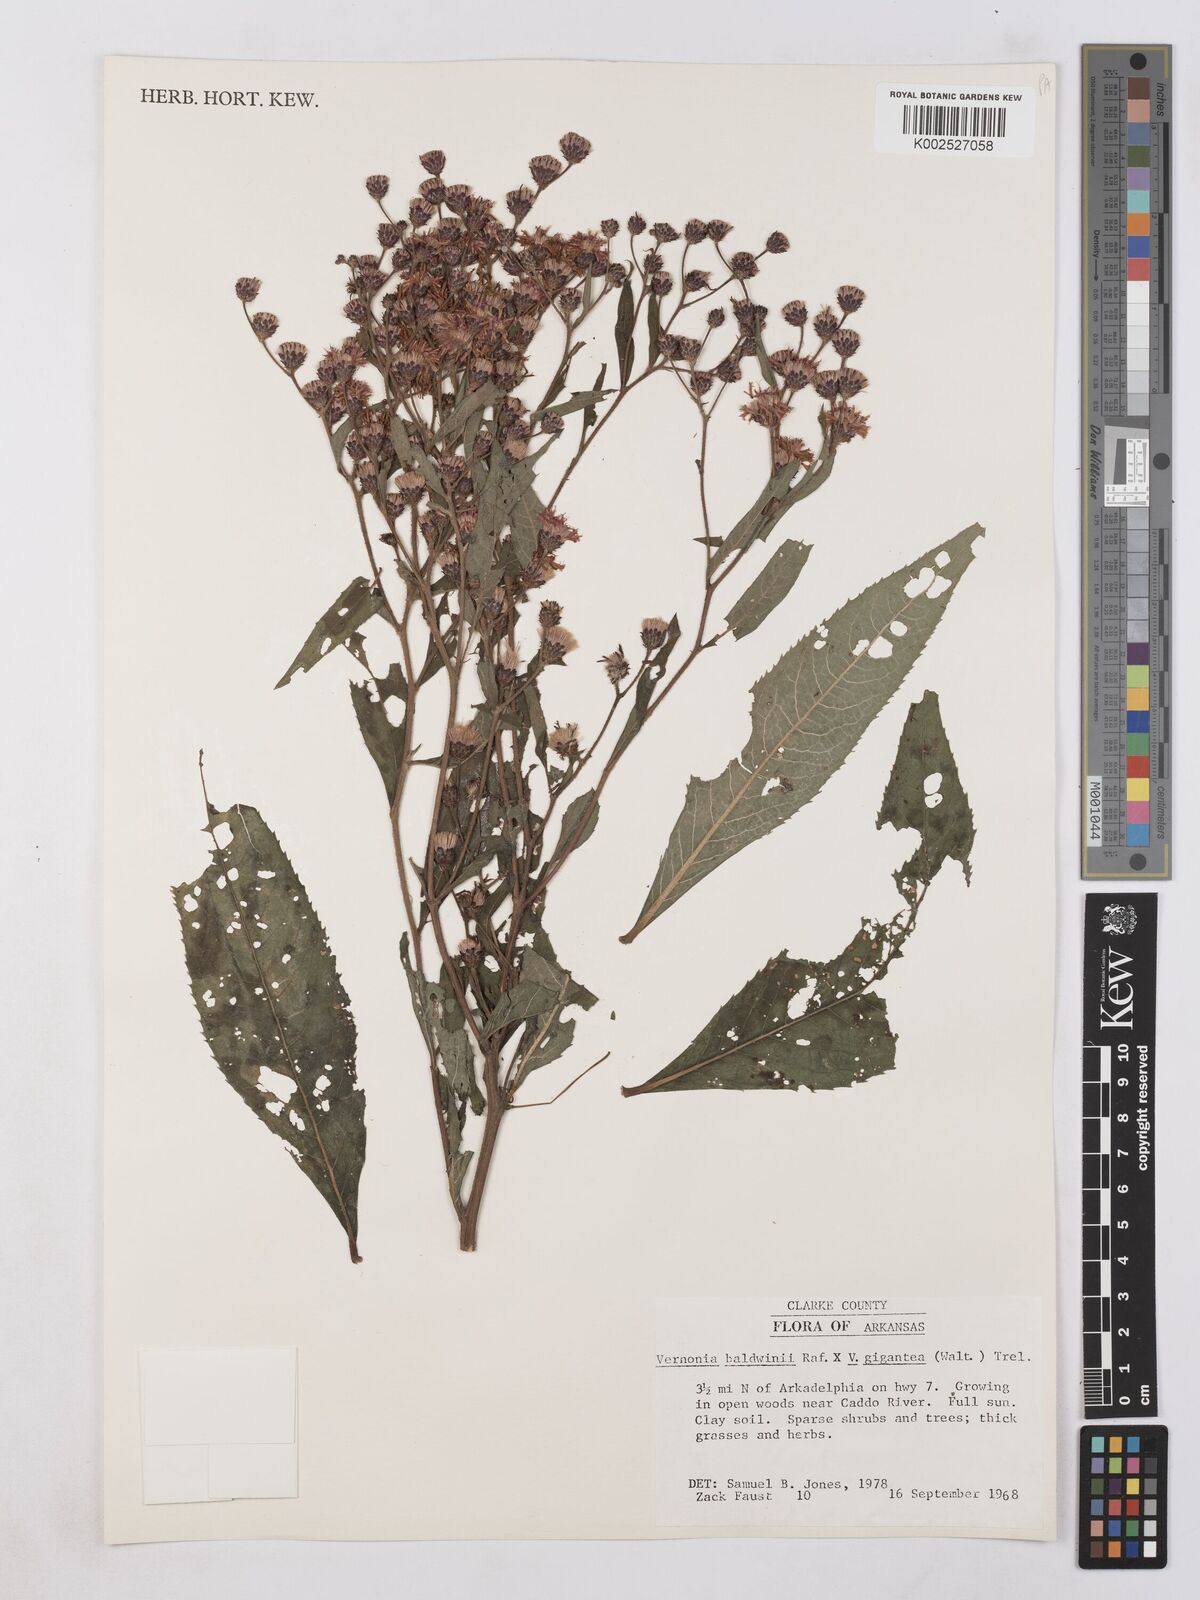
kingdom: Plantae
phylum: Tracheophyta
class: Magnoliopsida
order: Asterales
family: Asteraceae
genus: Vernonia
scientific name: Vernonia baldwinii
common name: Western ironweed
